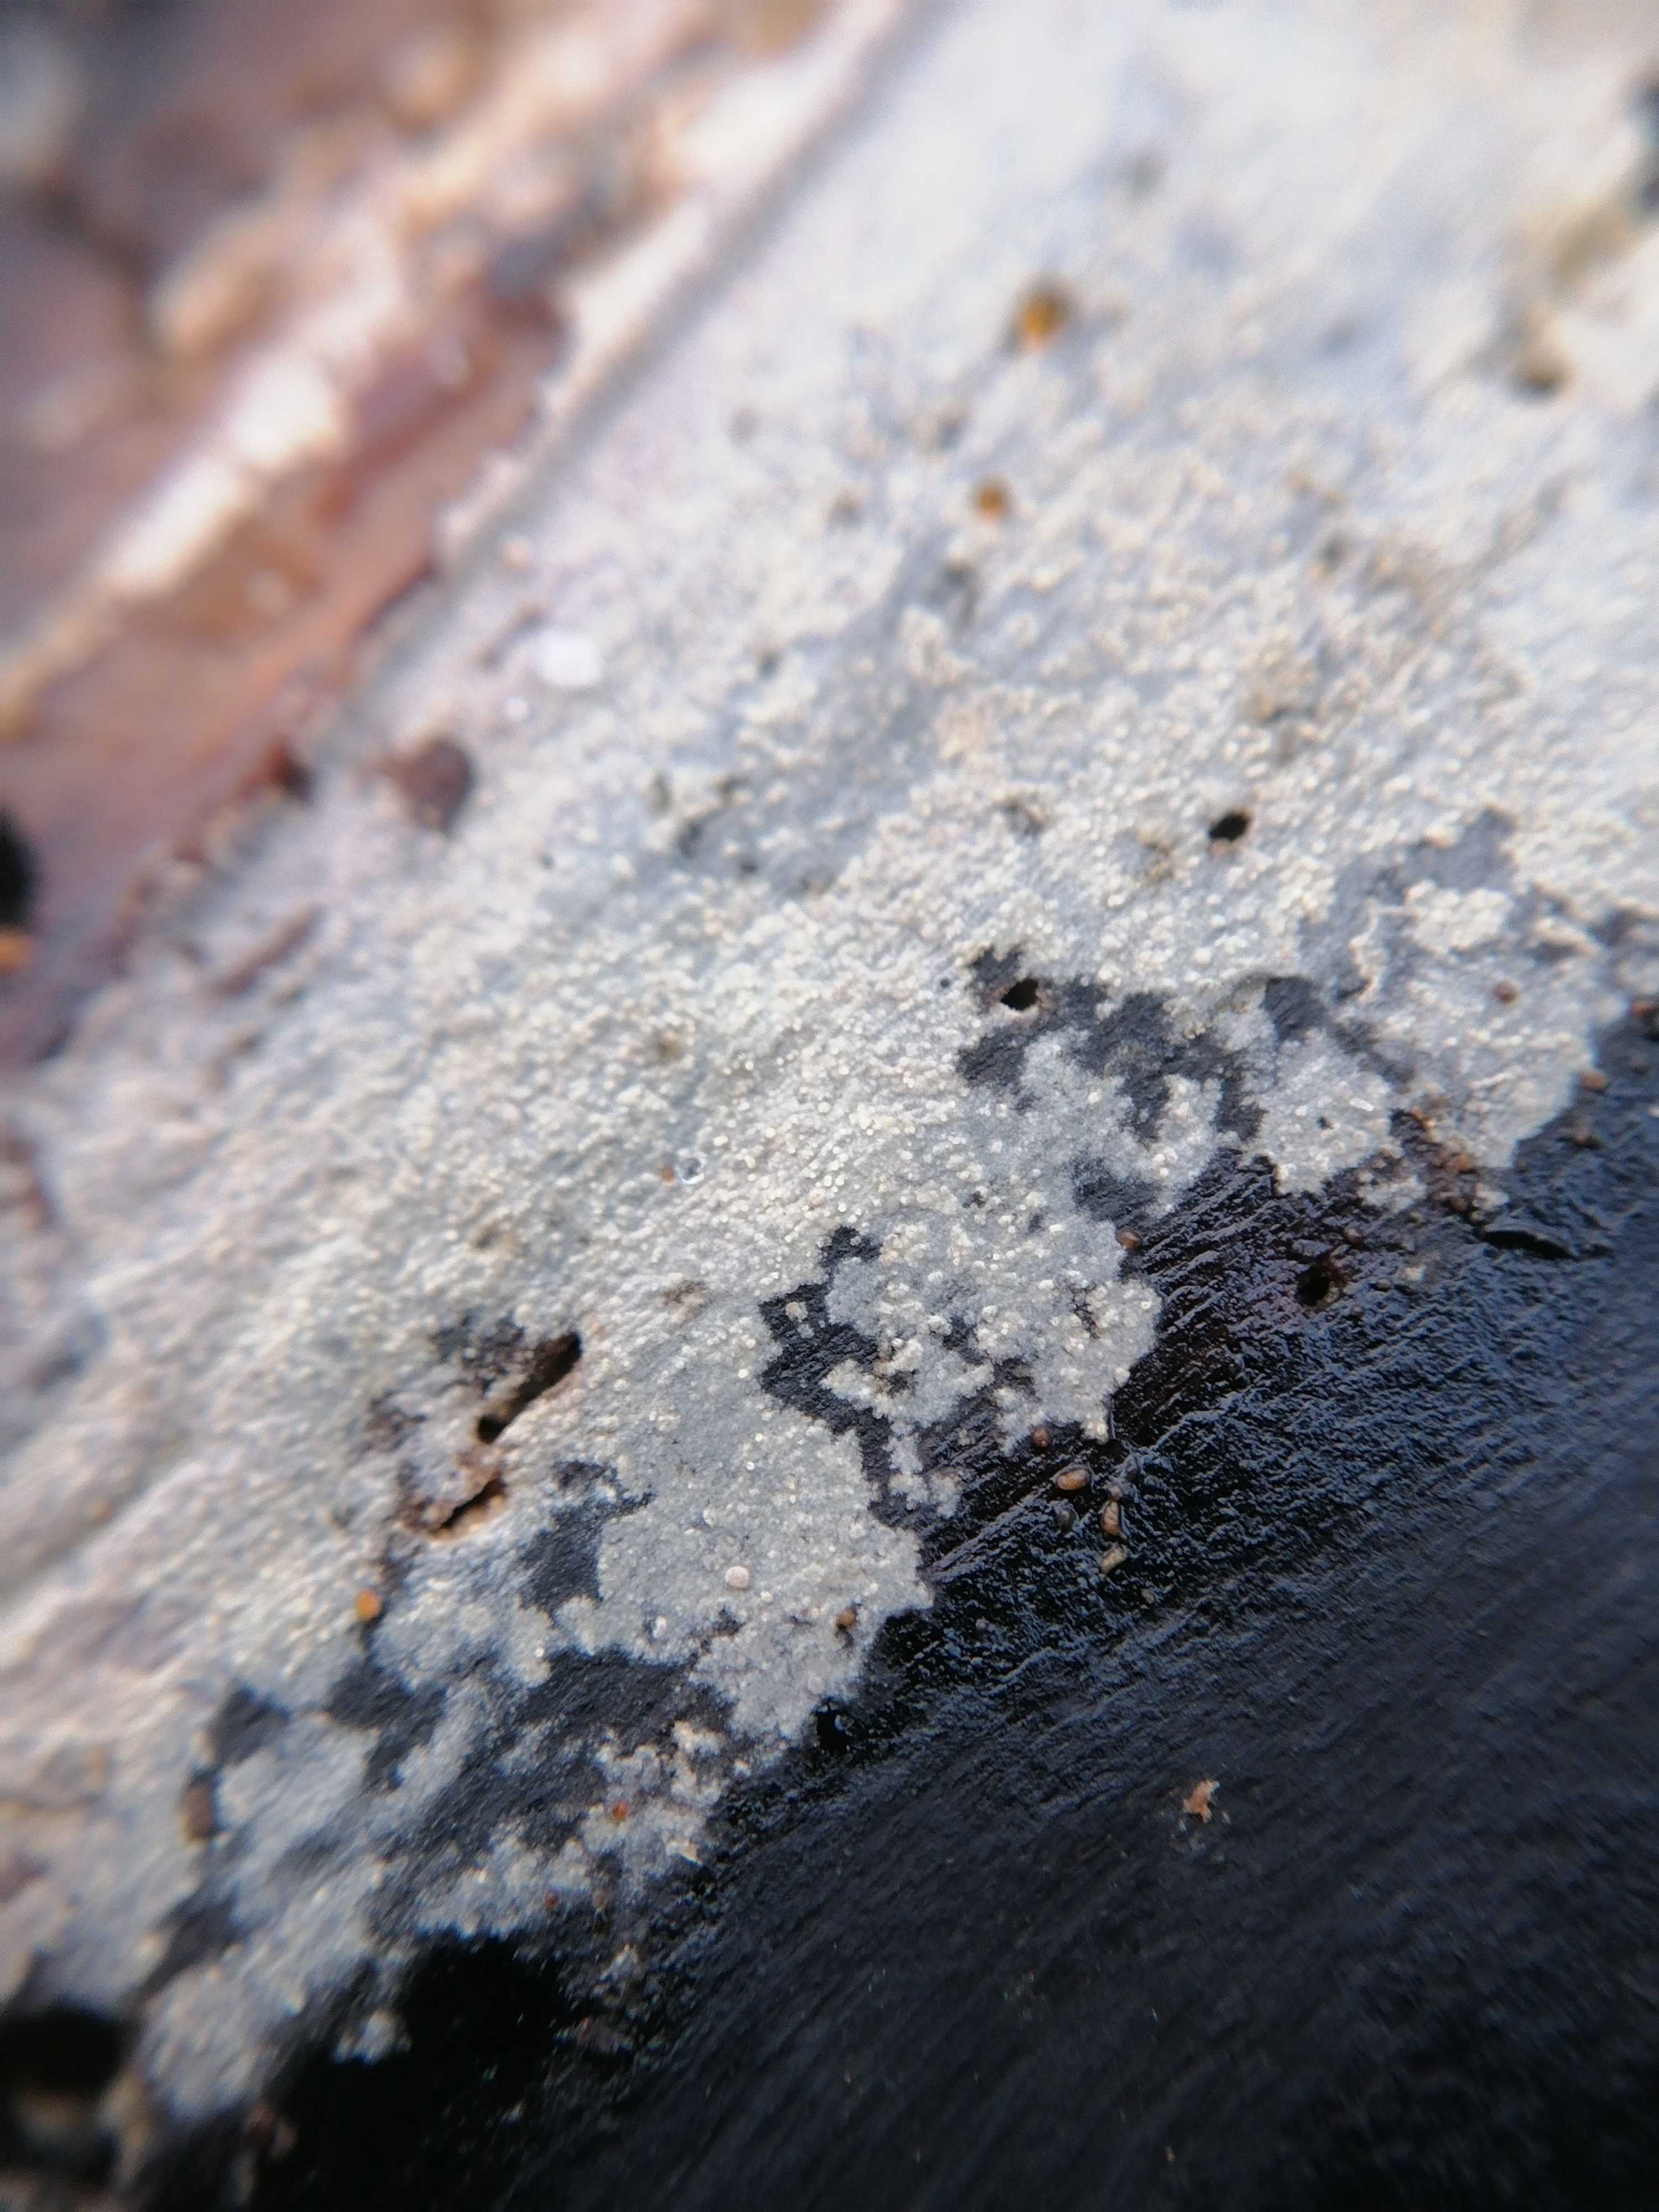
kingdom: Fungi
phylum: Basidiomycota
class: Agaricomycetes
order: Corticiales
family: Corticiaceae
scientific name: Corticiaceae
